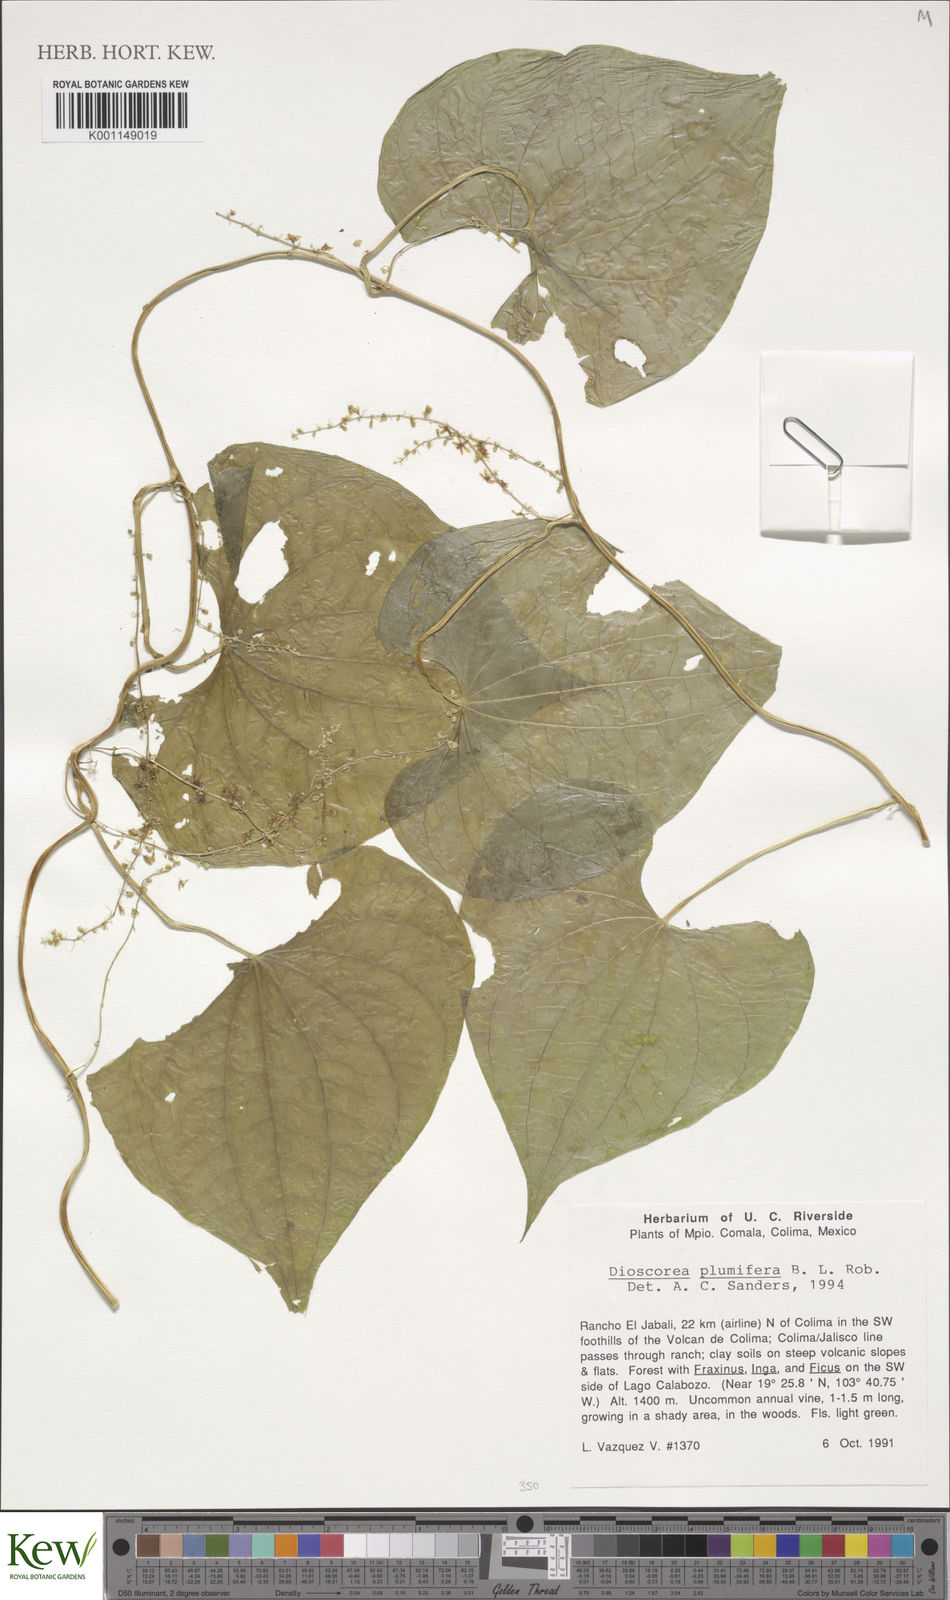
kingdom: Plantae
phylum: Tracheophyta
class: Liliopsida
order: Dioscoreales
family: Dioscoreaceae
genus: Dioscorea
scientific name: Dioscorea plumifera
